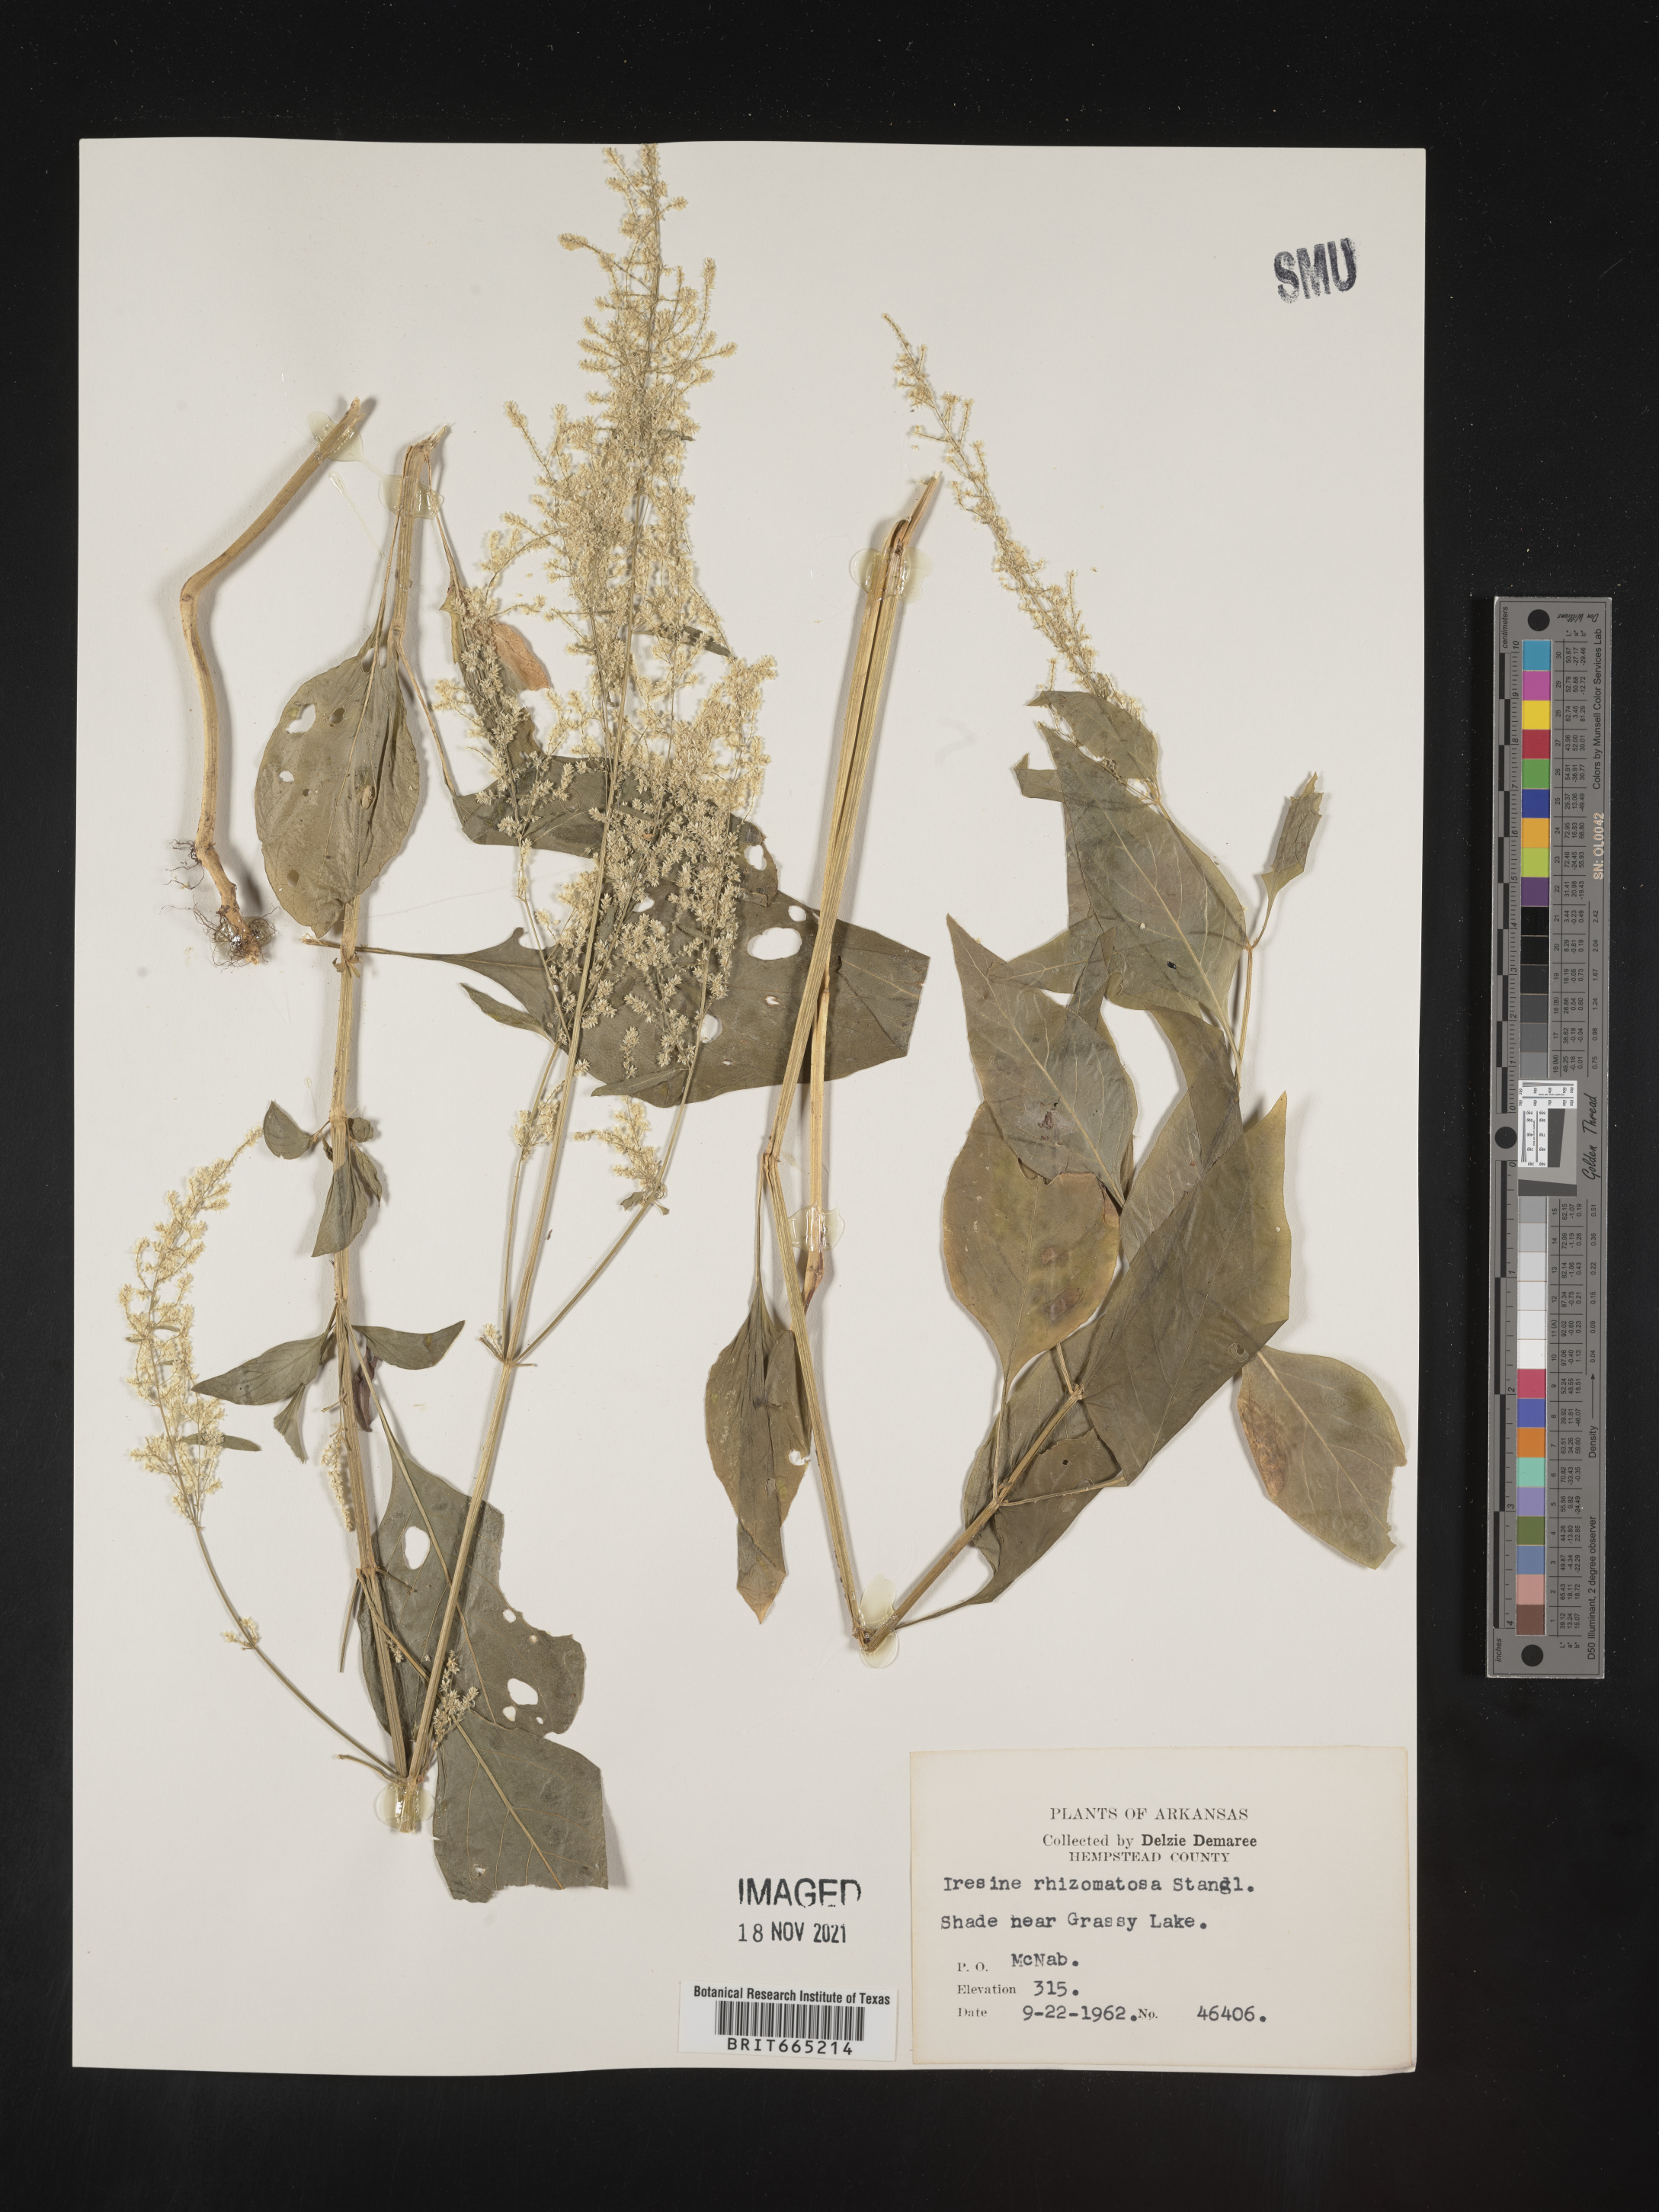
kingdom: Plantae
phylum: Tracheophyta
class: Magnoliopsida
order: Caryophyllales
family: Amaranthaceae
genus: Iresine
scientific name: Iresine rhizomatosa
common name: Juda's-bush
